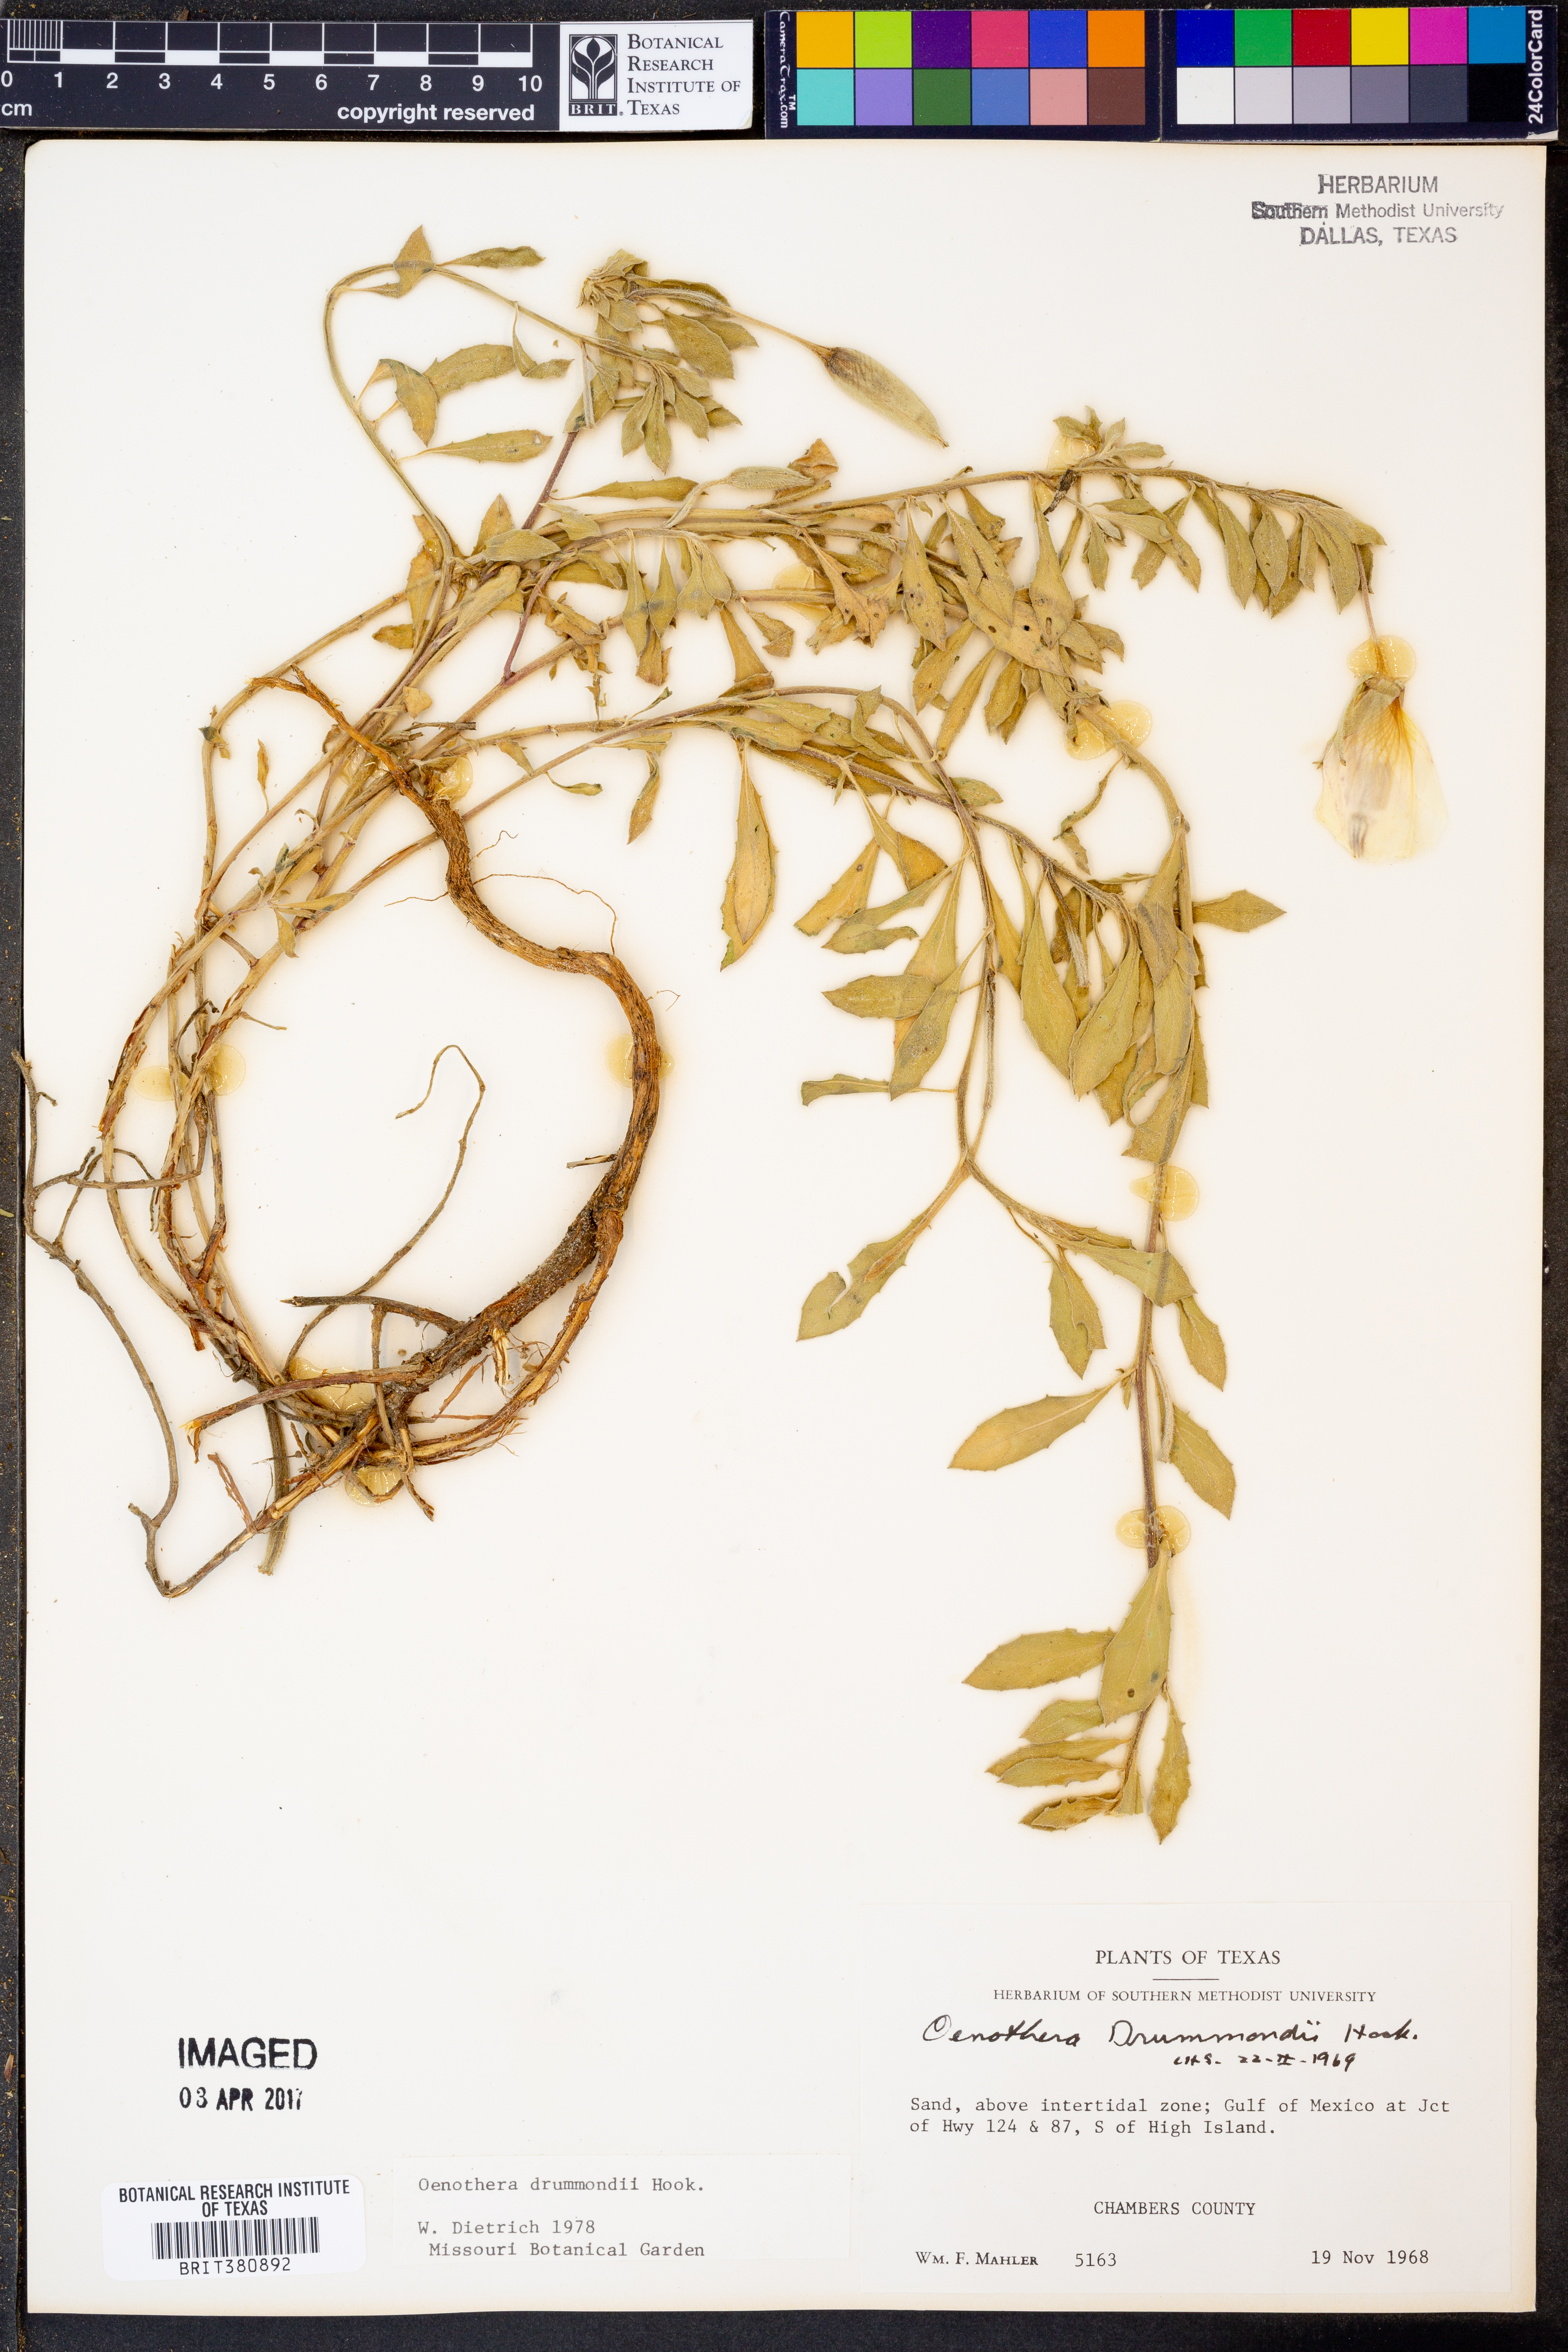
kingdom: Plantae
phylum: Tracheophyta
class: Magnoliopsida
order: Myrtales
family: Onagraceae
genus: Oenothera
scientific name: Oenothera drummondii
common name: Beach evening-primrose
